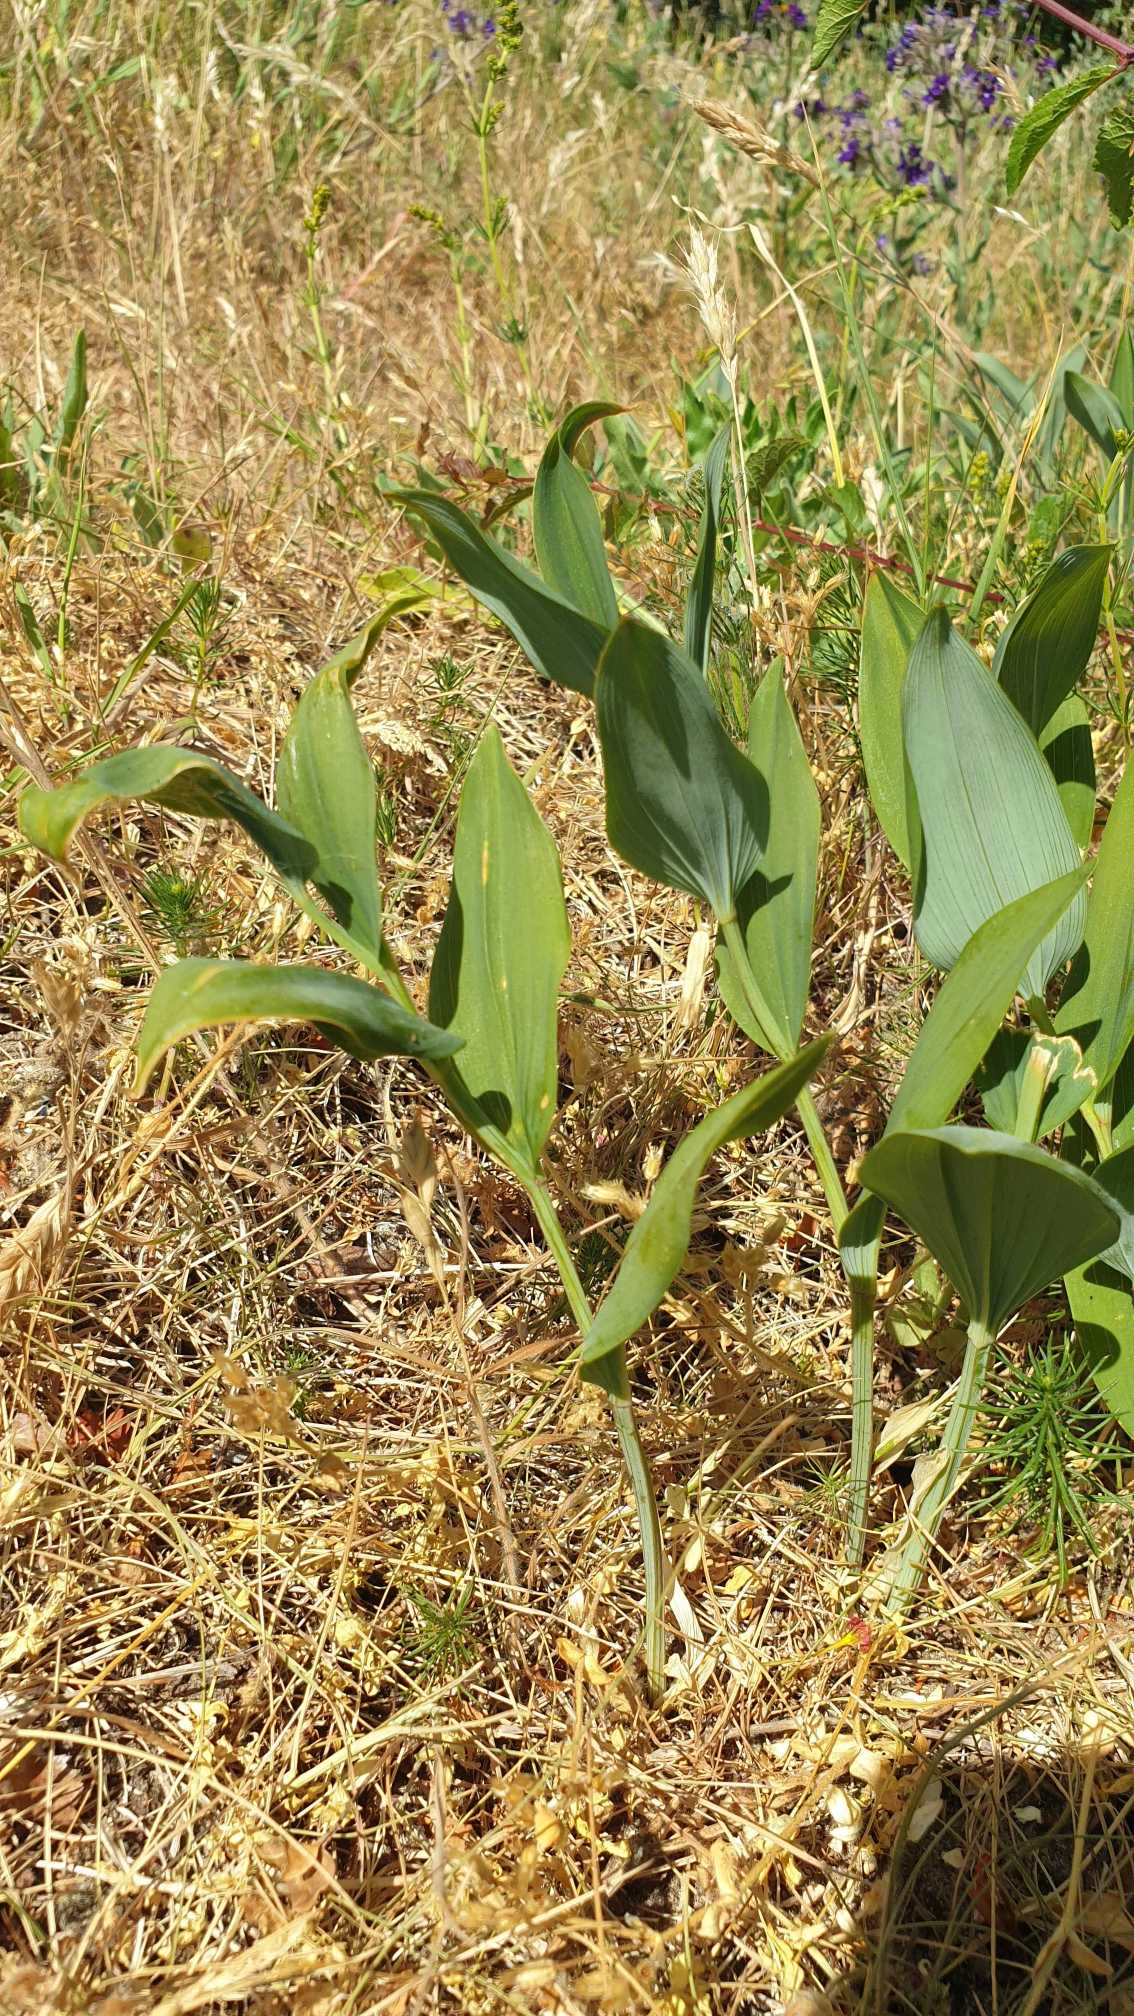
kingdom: Plantae
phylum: Tracheophyta
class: Liliopsida
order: Asparagales
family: Asparagaceae
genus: Polygonatum
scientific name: Polygonatum odoratum
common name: Kantet konval
